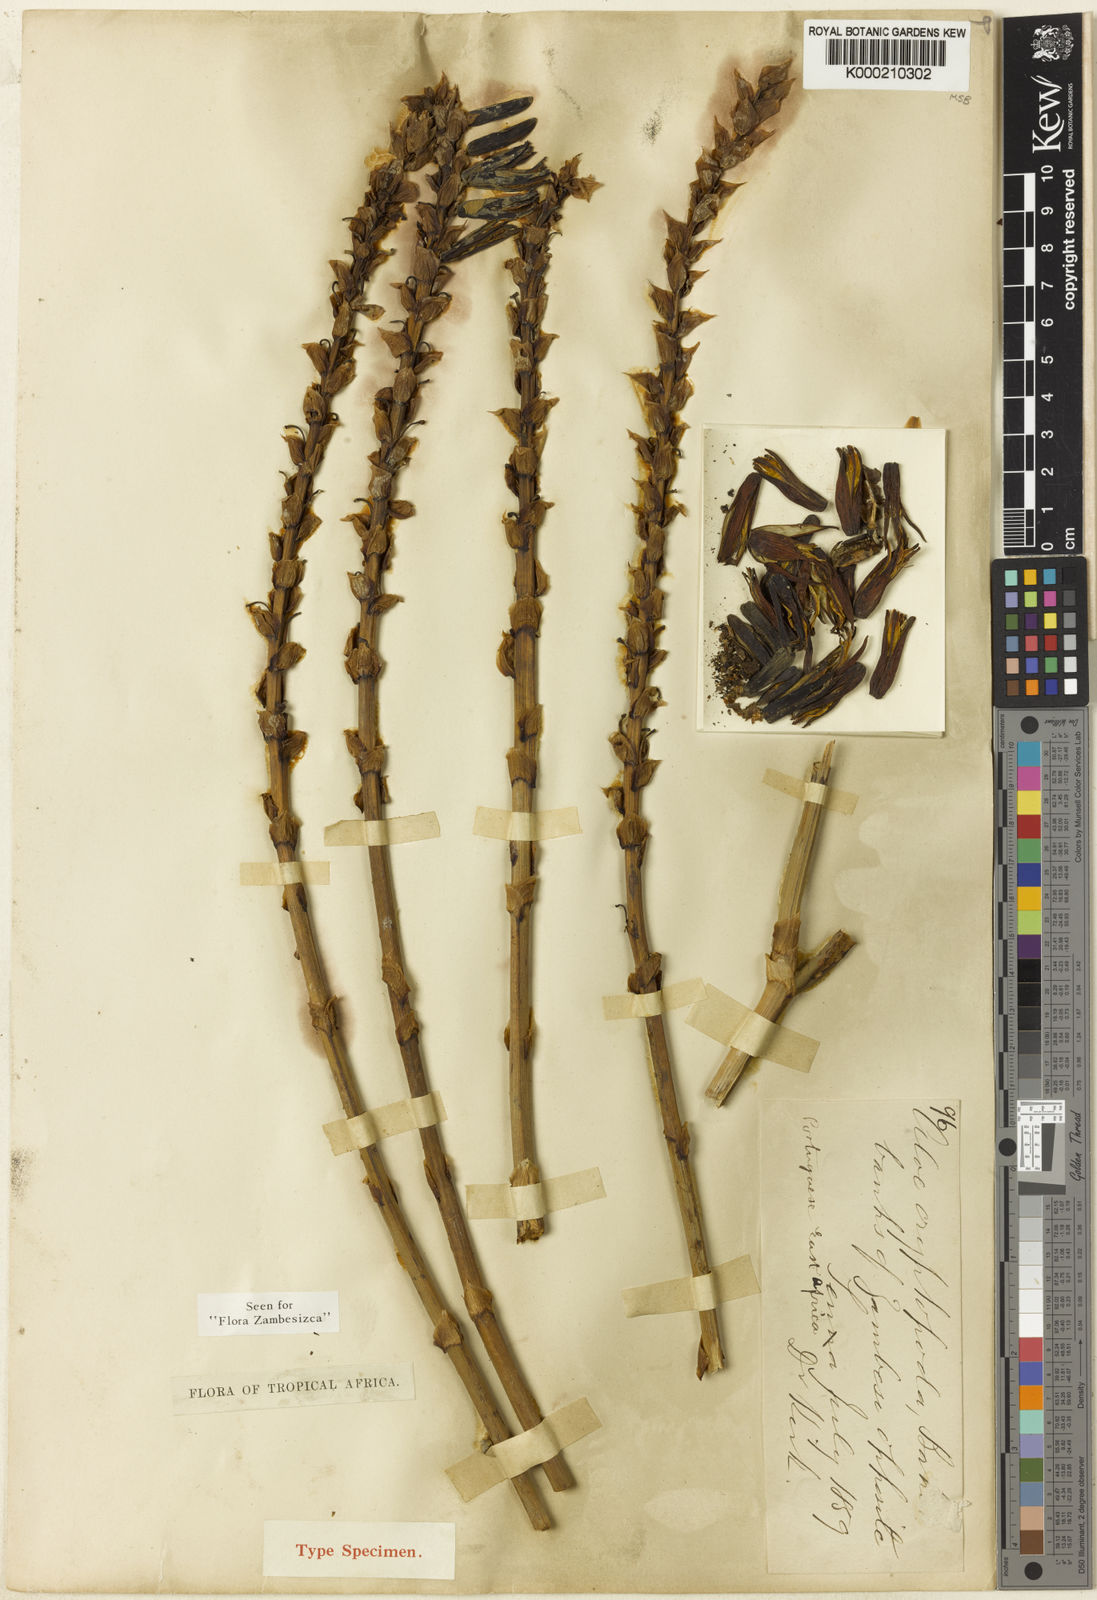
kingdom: Plantae
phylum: Tracheophyta
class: Liliopsida
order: Asparagales
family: Asphodelaceae
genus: Aloe
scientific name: Aloe cryptopoda
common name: Dr. kirk's aloe
